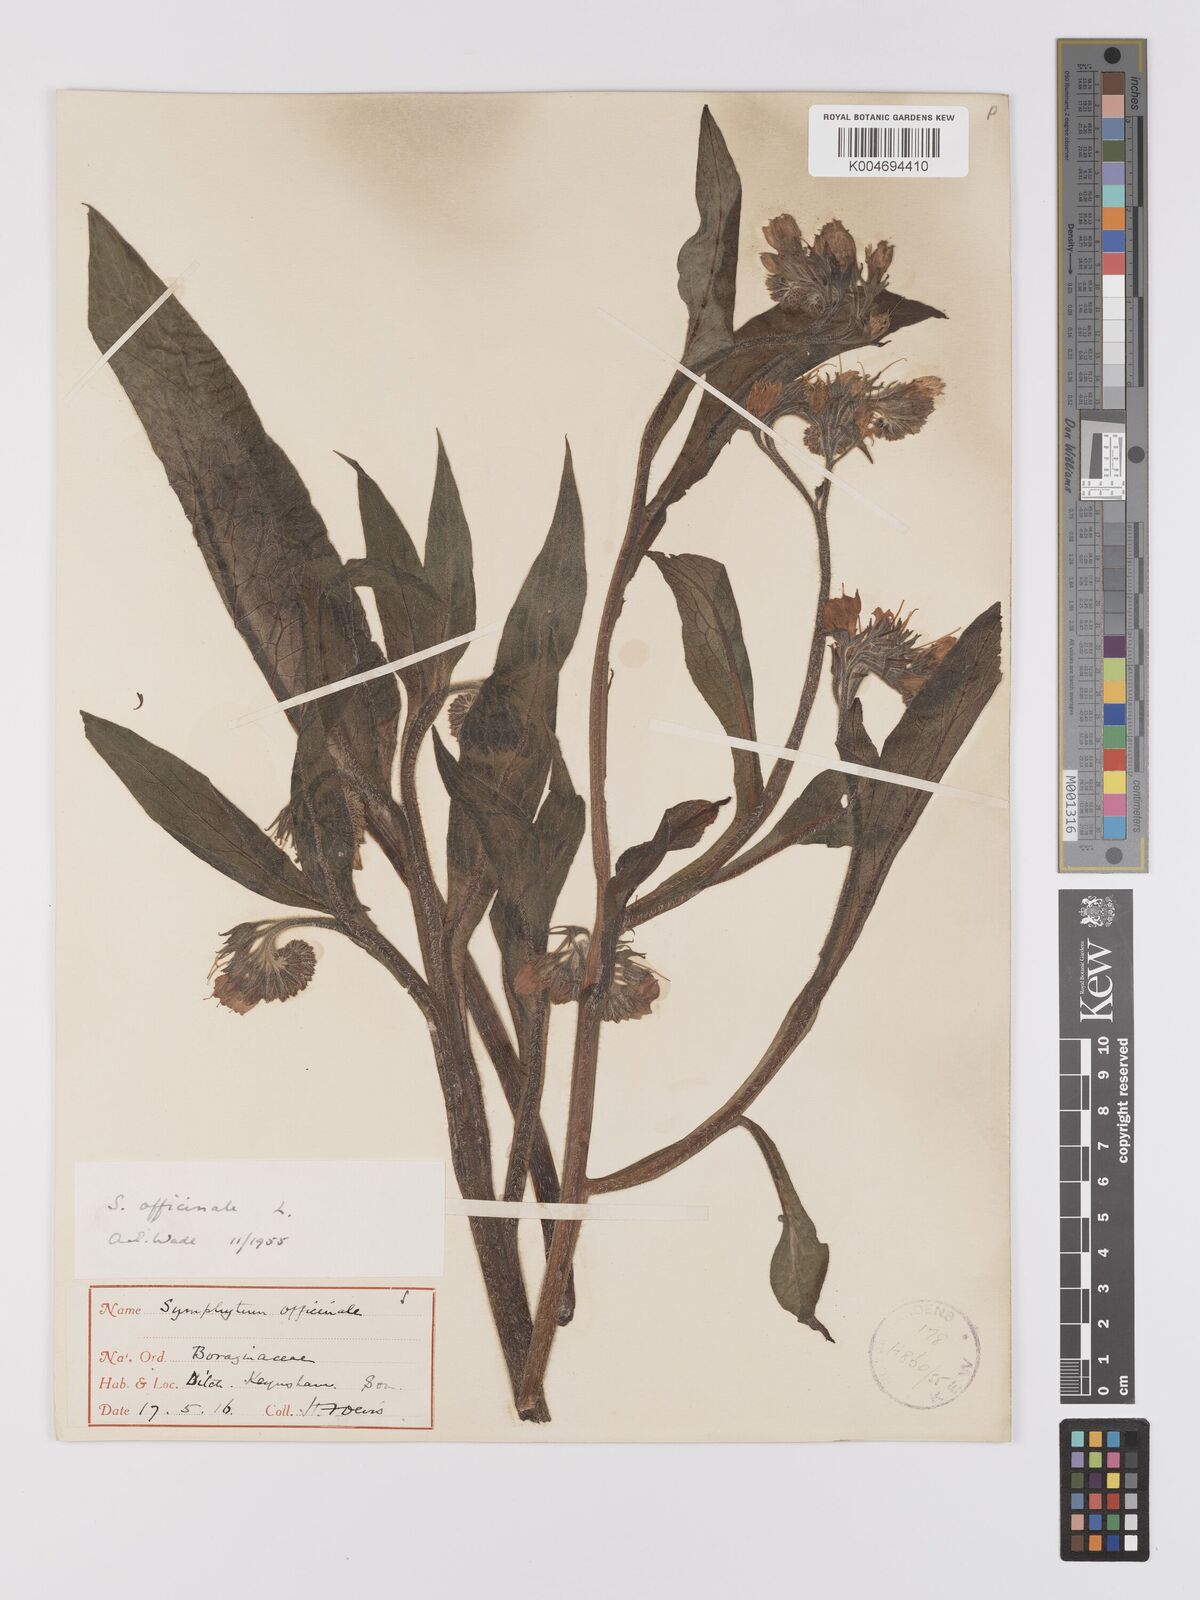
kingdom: Plantae
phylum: Tracheophyta
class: Magnoliopsida
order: Boraginales
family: Boraginaceae
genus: Symphytum
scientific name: Symphytum officinale
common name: Common comfrey
